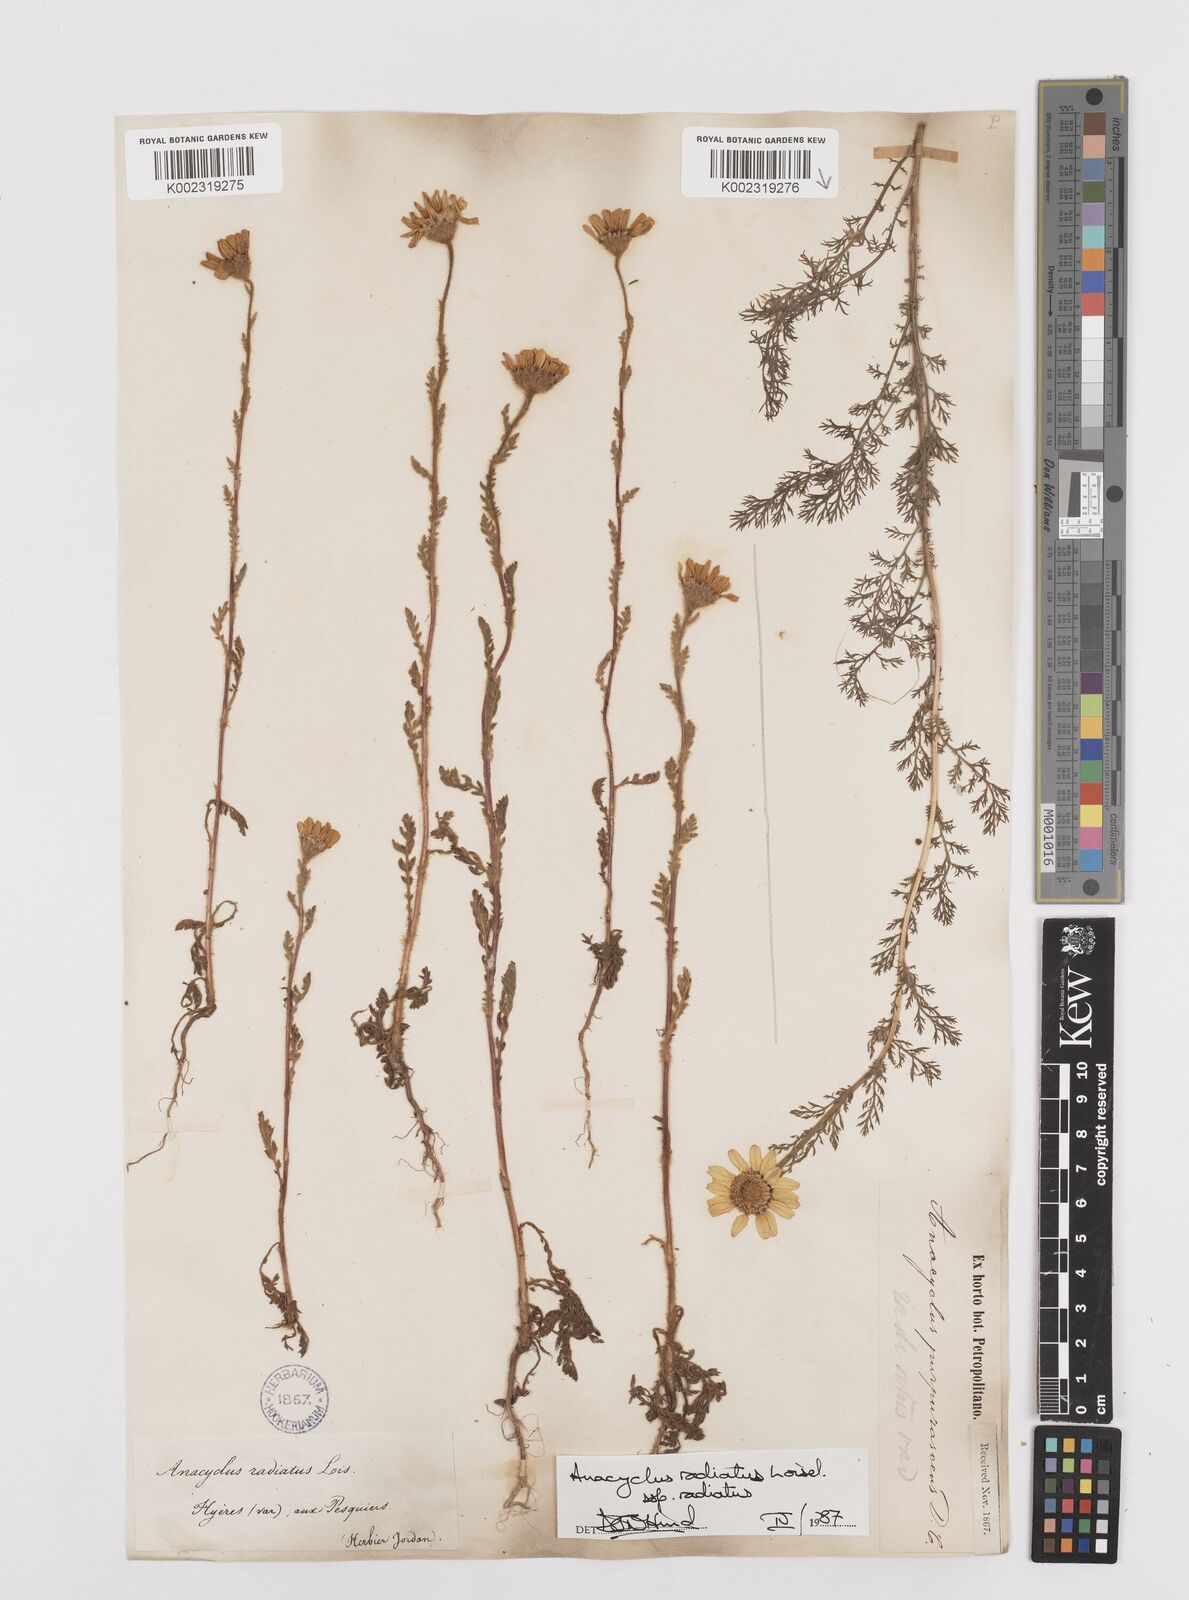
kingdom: Plantae
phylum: Tracheophyta
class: Magnoliopsida
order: Asterales
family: Asteraceae
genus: Anacyclus
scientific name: Anacyclus radiatus
